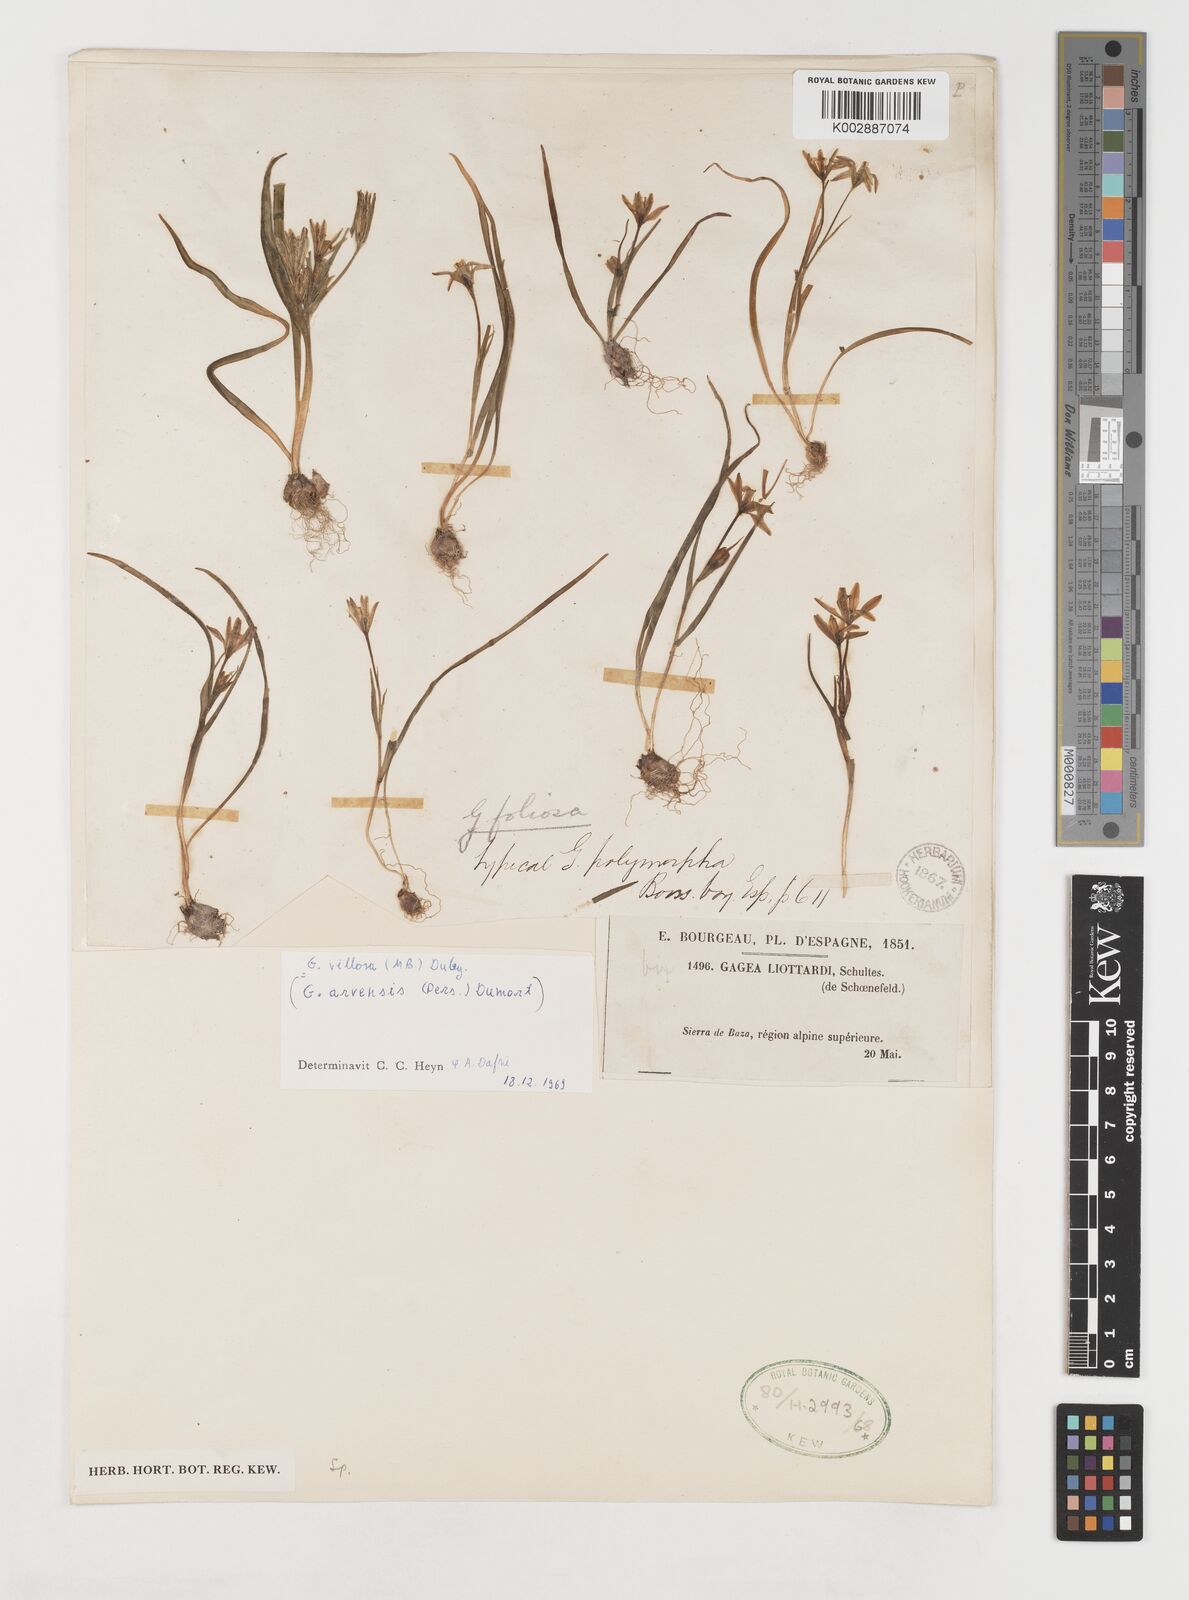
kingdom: Plantae
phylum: Tracheophyta
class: Liliopsida
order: Liliales
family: Liliaceae
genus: Gagea
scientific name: Gagea minima
